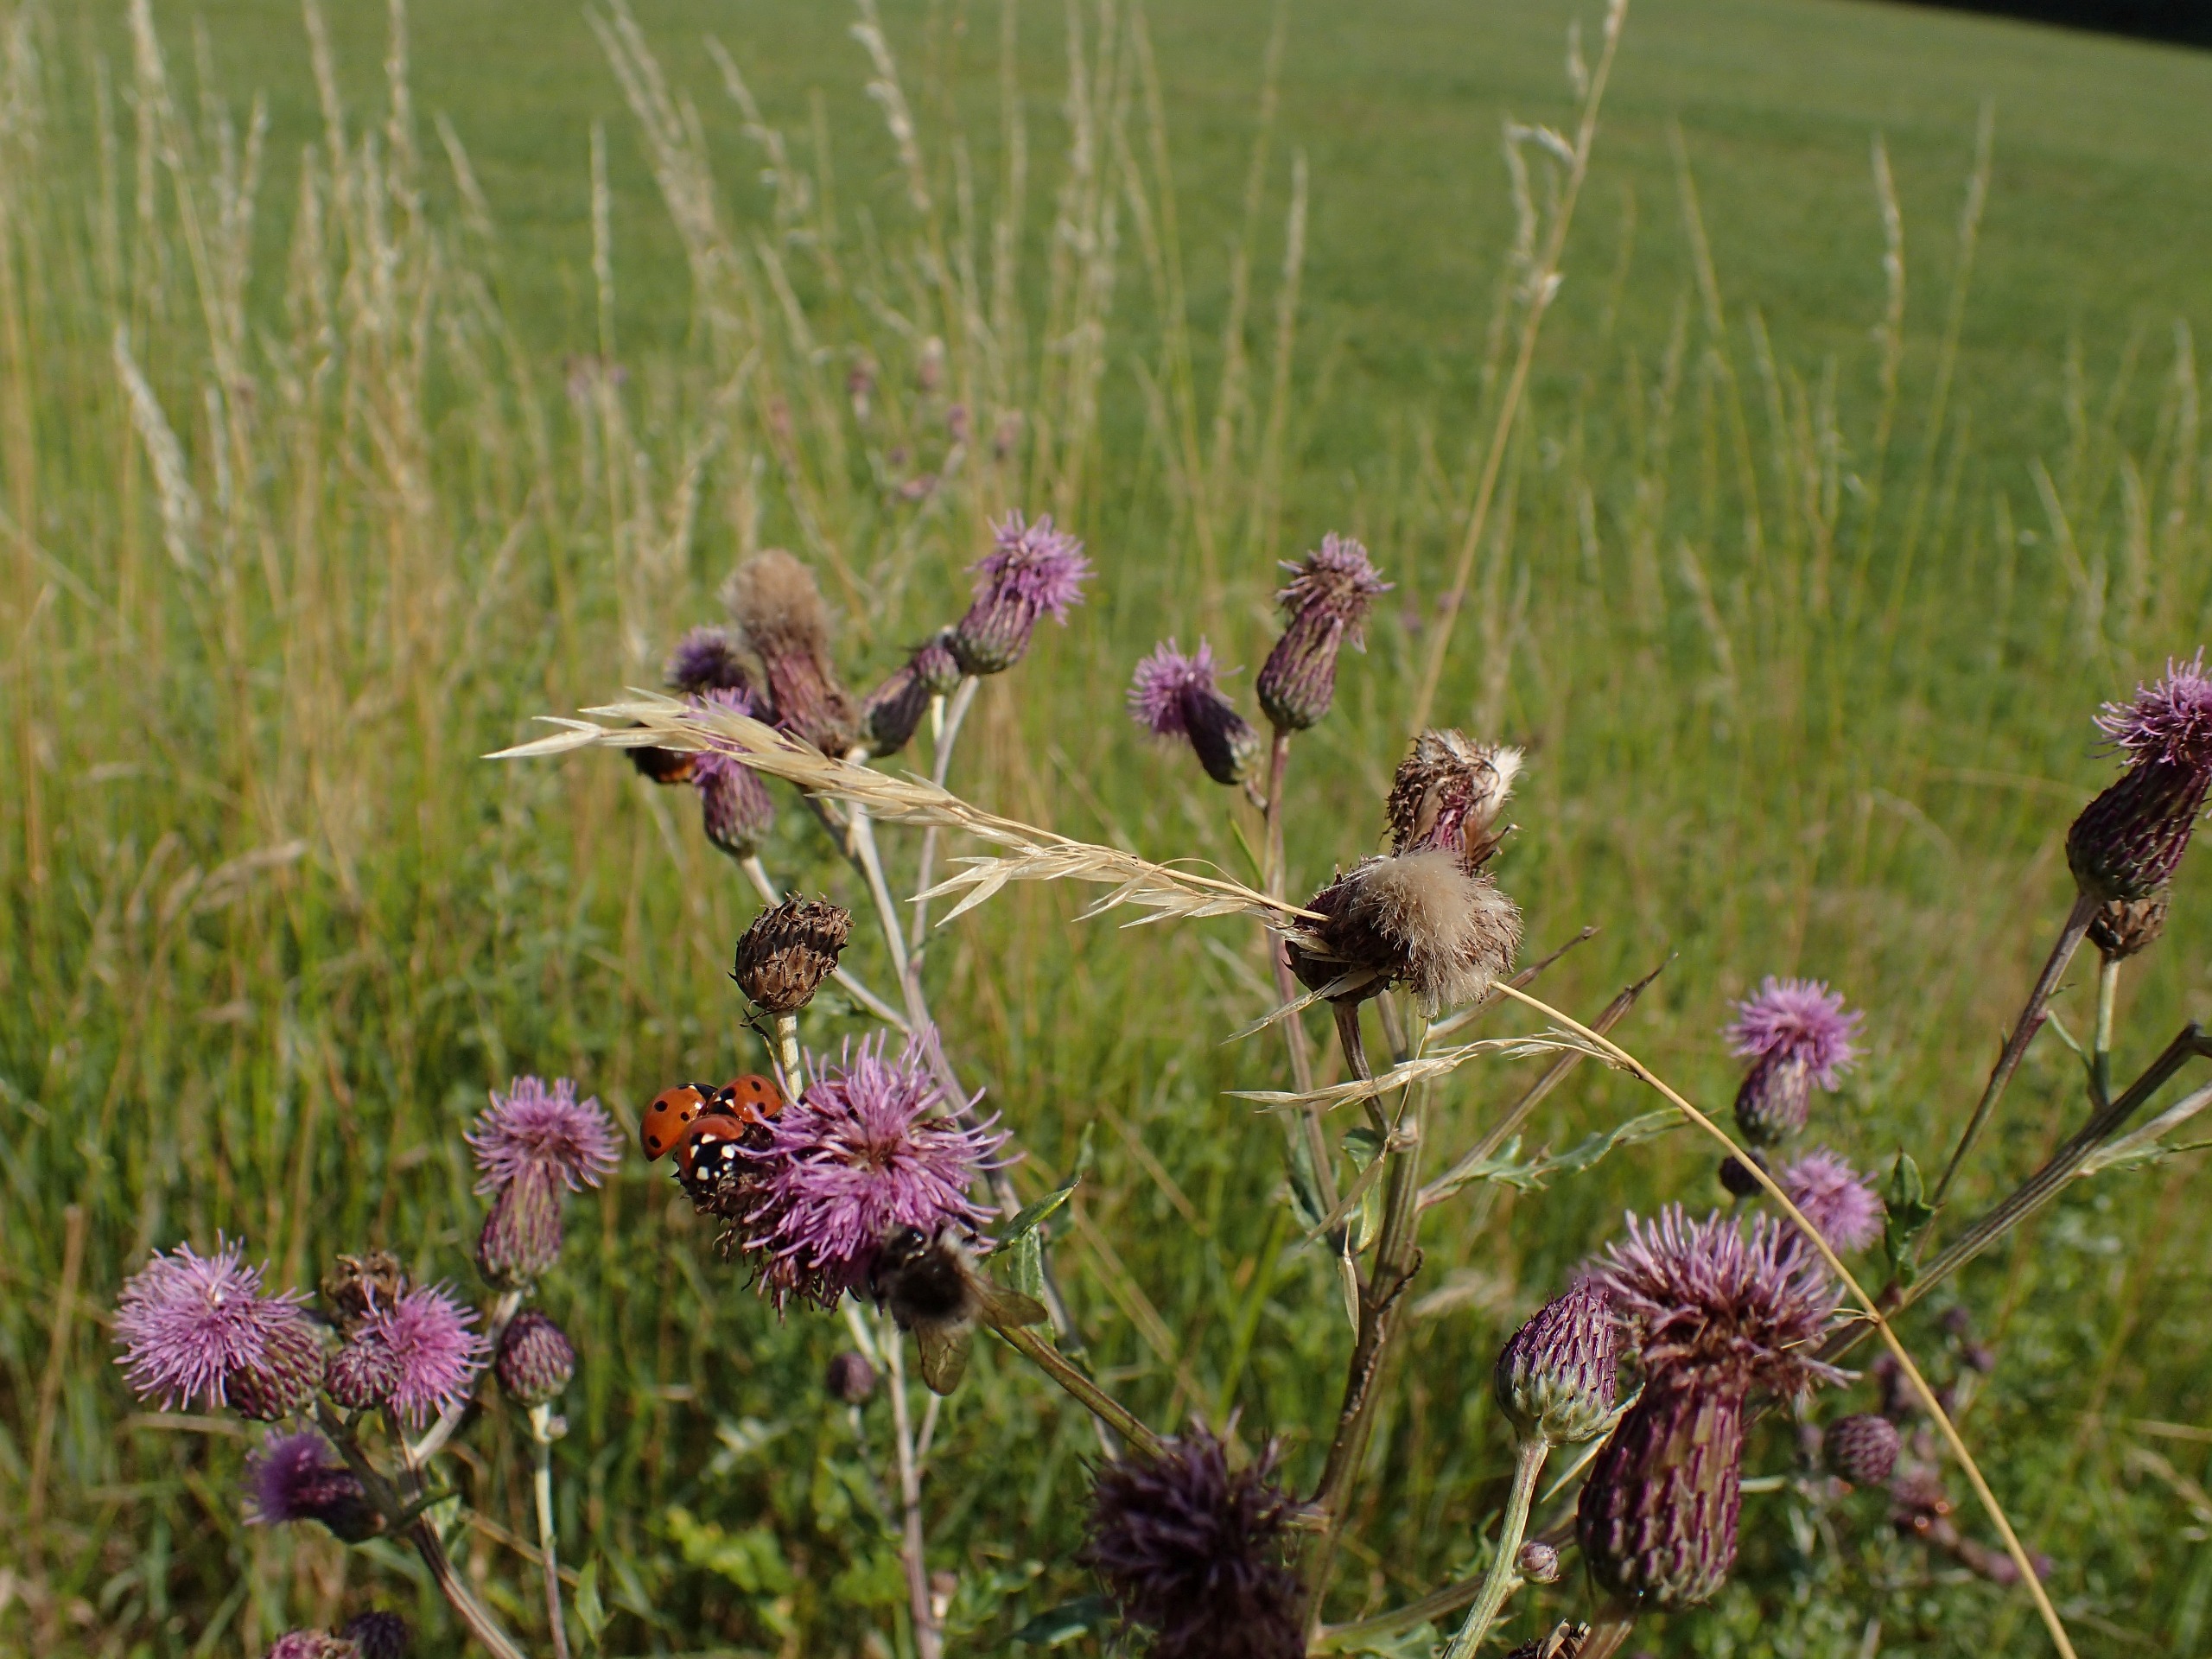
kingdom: Animalia
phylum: Arthropoda
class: Insecta
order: Coleoptera
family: Coccinellidae
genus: Coccinella
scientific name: Coccinella septempunctata
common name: Syvplettet mariehøne
